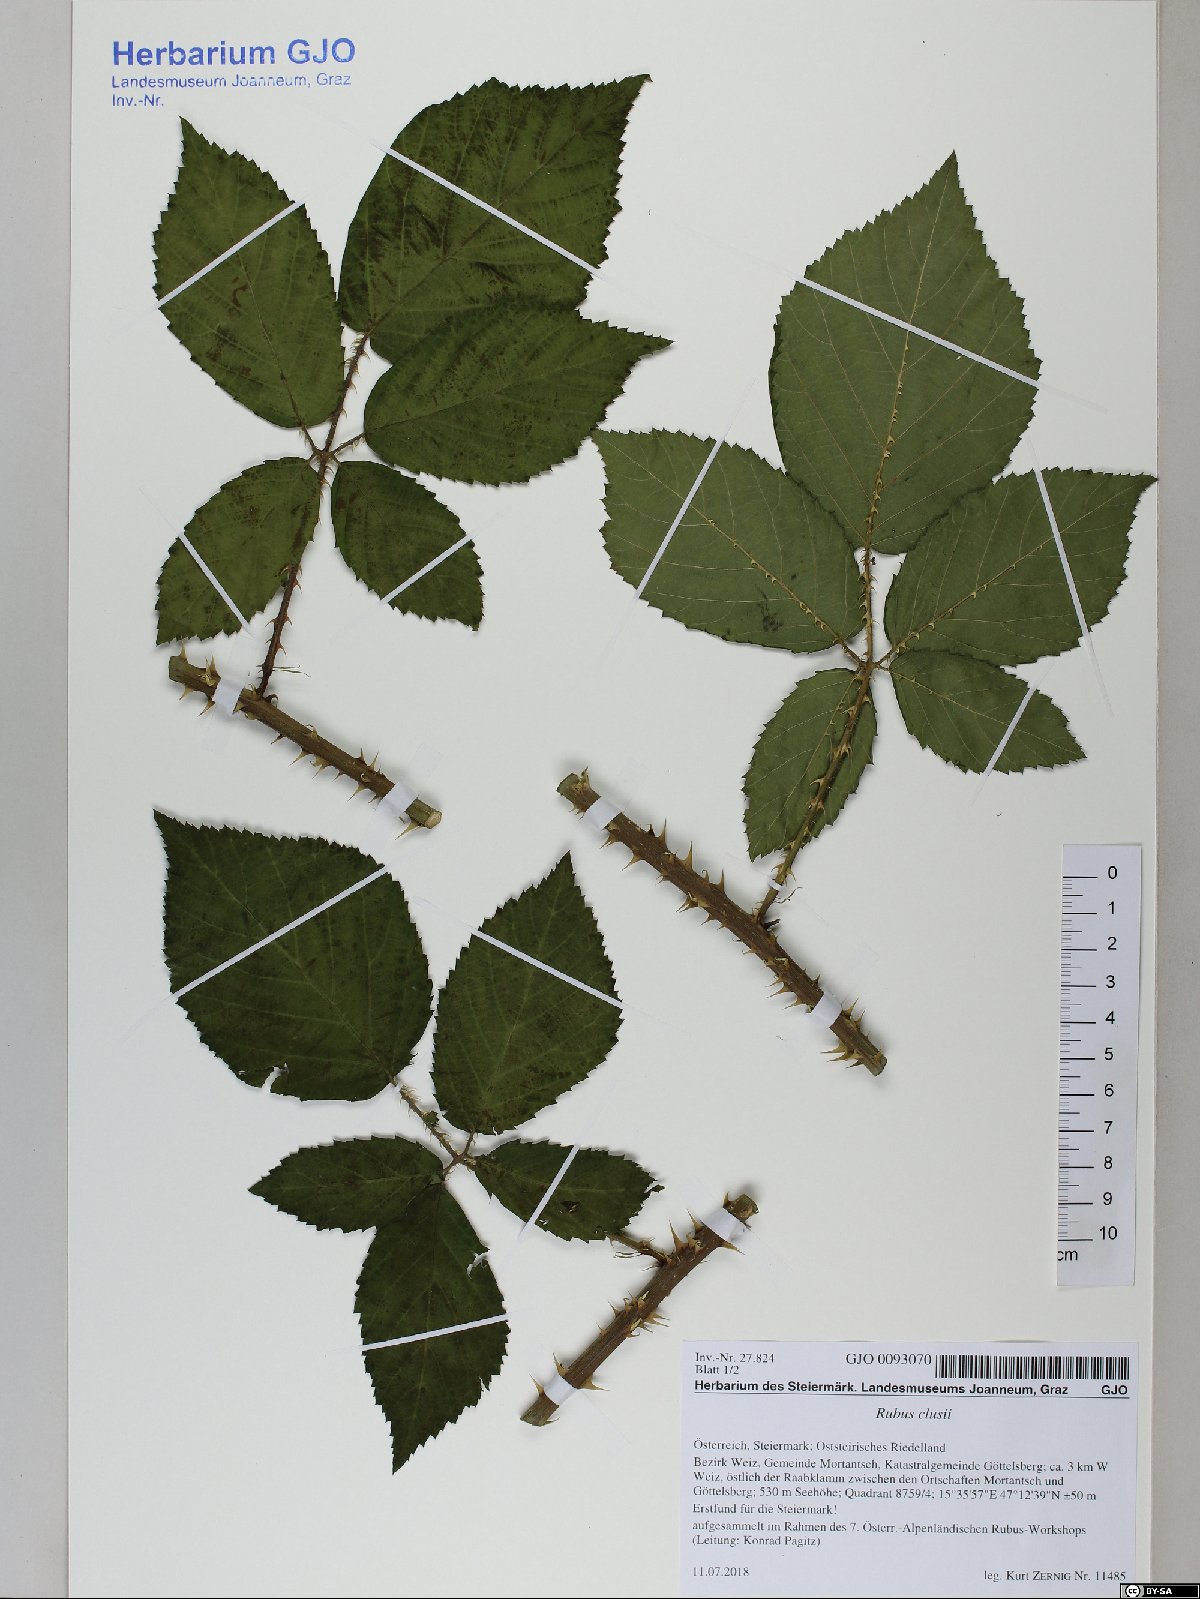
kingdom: Plantae
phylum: Tracheophyta
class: Magnoliopsida
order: Rosales
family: Rosaceae
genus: Rubus
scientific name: Rubus clusii
